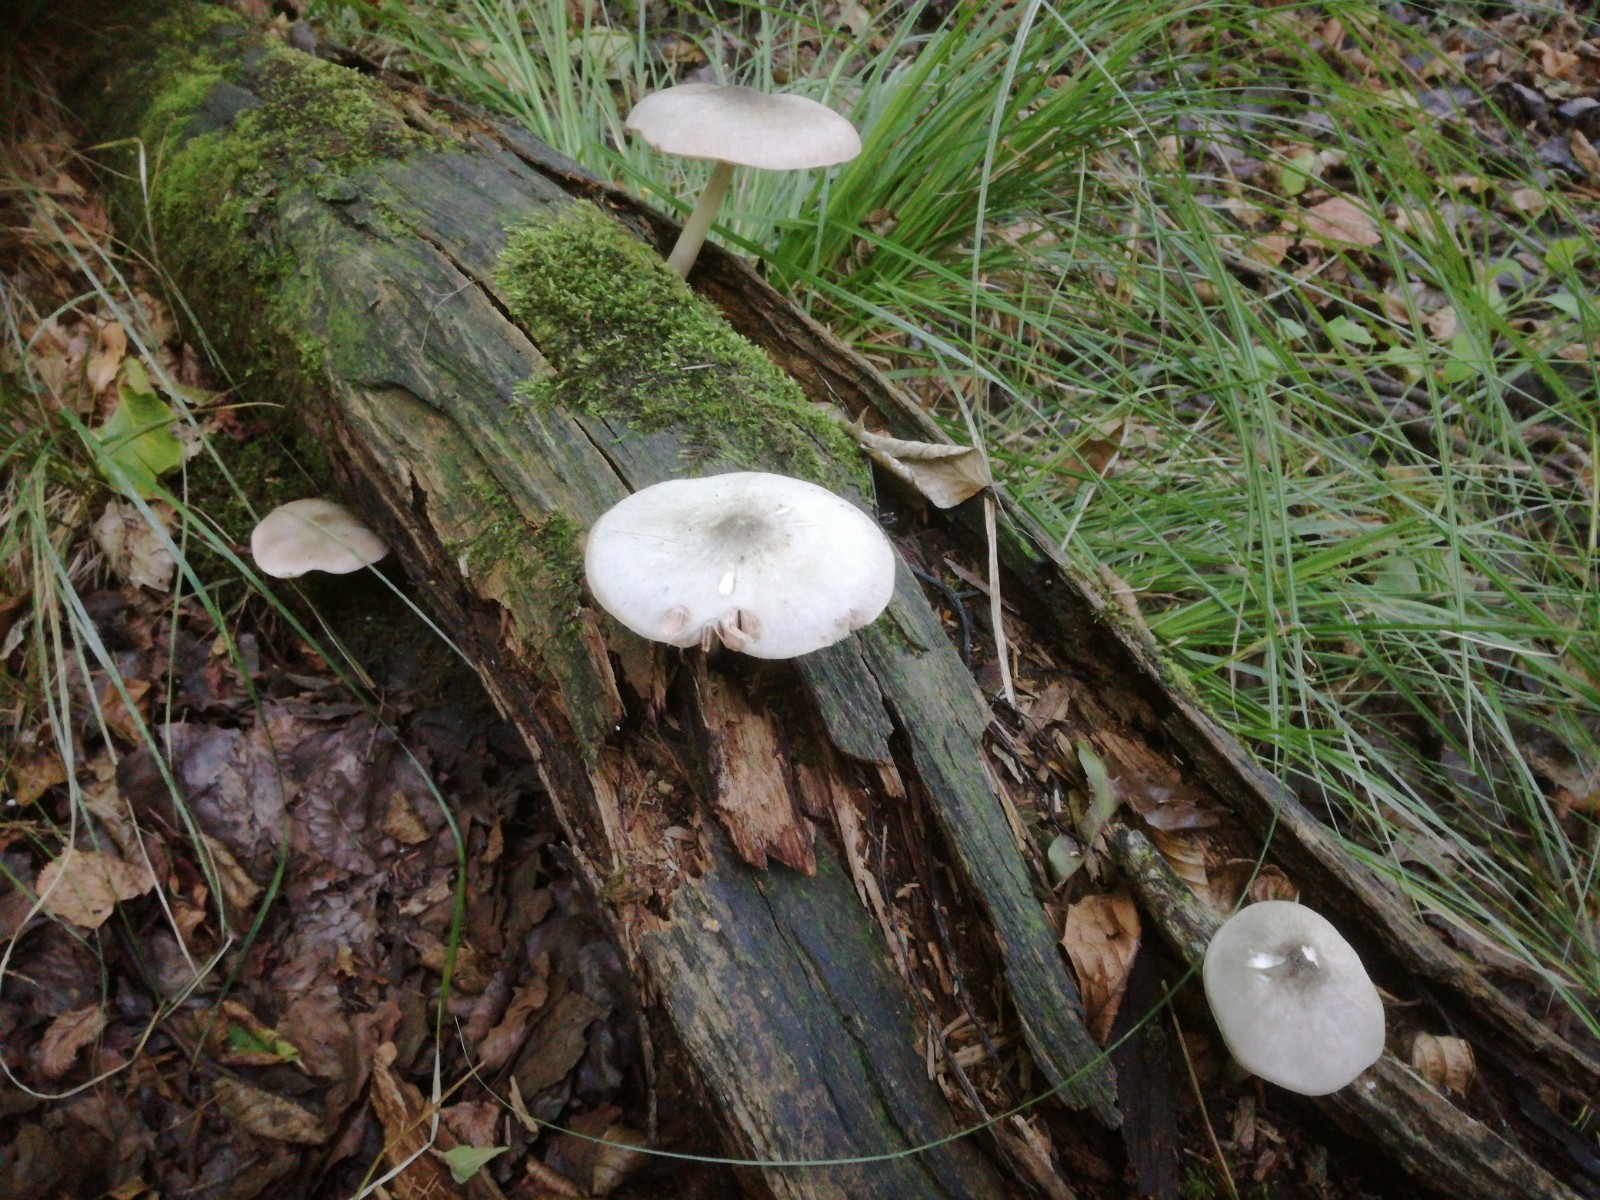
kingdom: Fungi
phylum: Basidiomycota
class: Agaricomycetes
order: Agaricales
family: Pluteaceae
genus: Pluteus
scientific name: Pluteus salicinus
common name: stiv skærmhat
